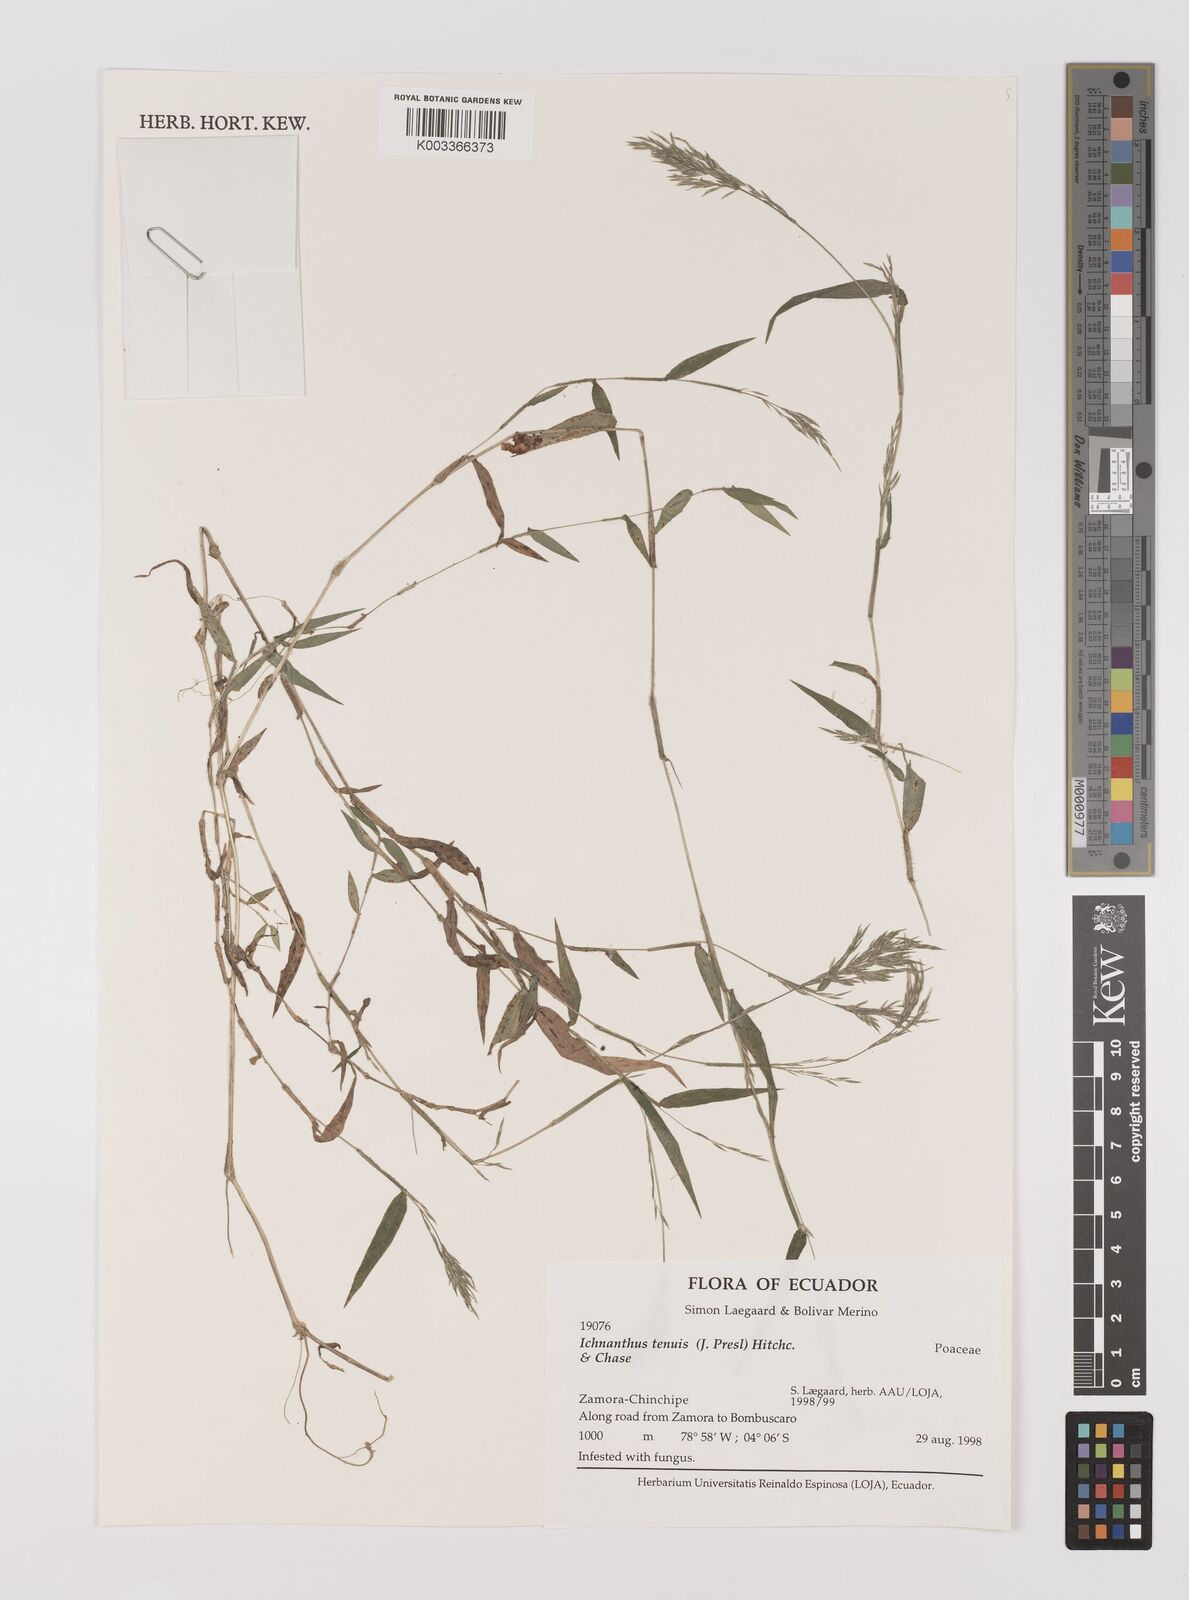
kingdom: Plantae
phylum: Tracheophyta
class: Liliopsida
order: Poales
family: Poaceae
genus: Ichnanthus
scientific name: Ichnanthus tenuis
